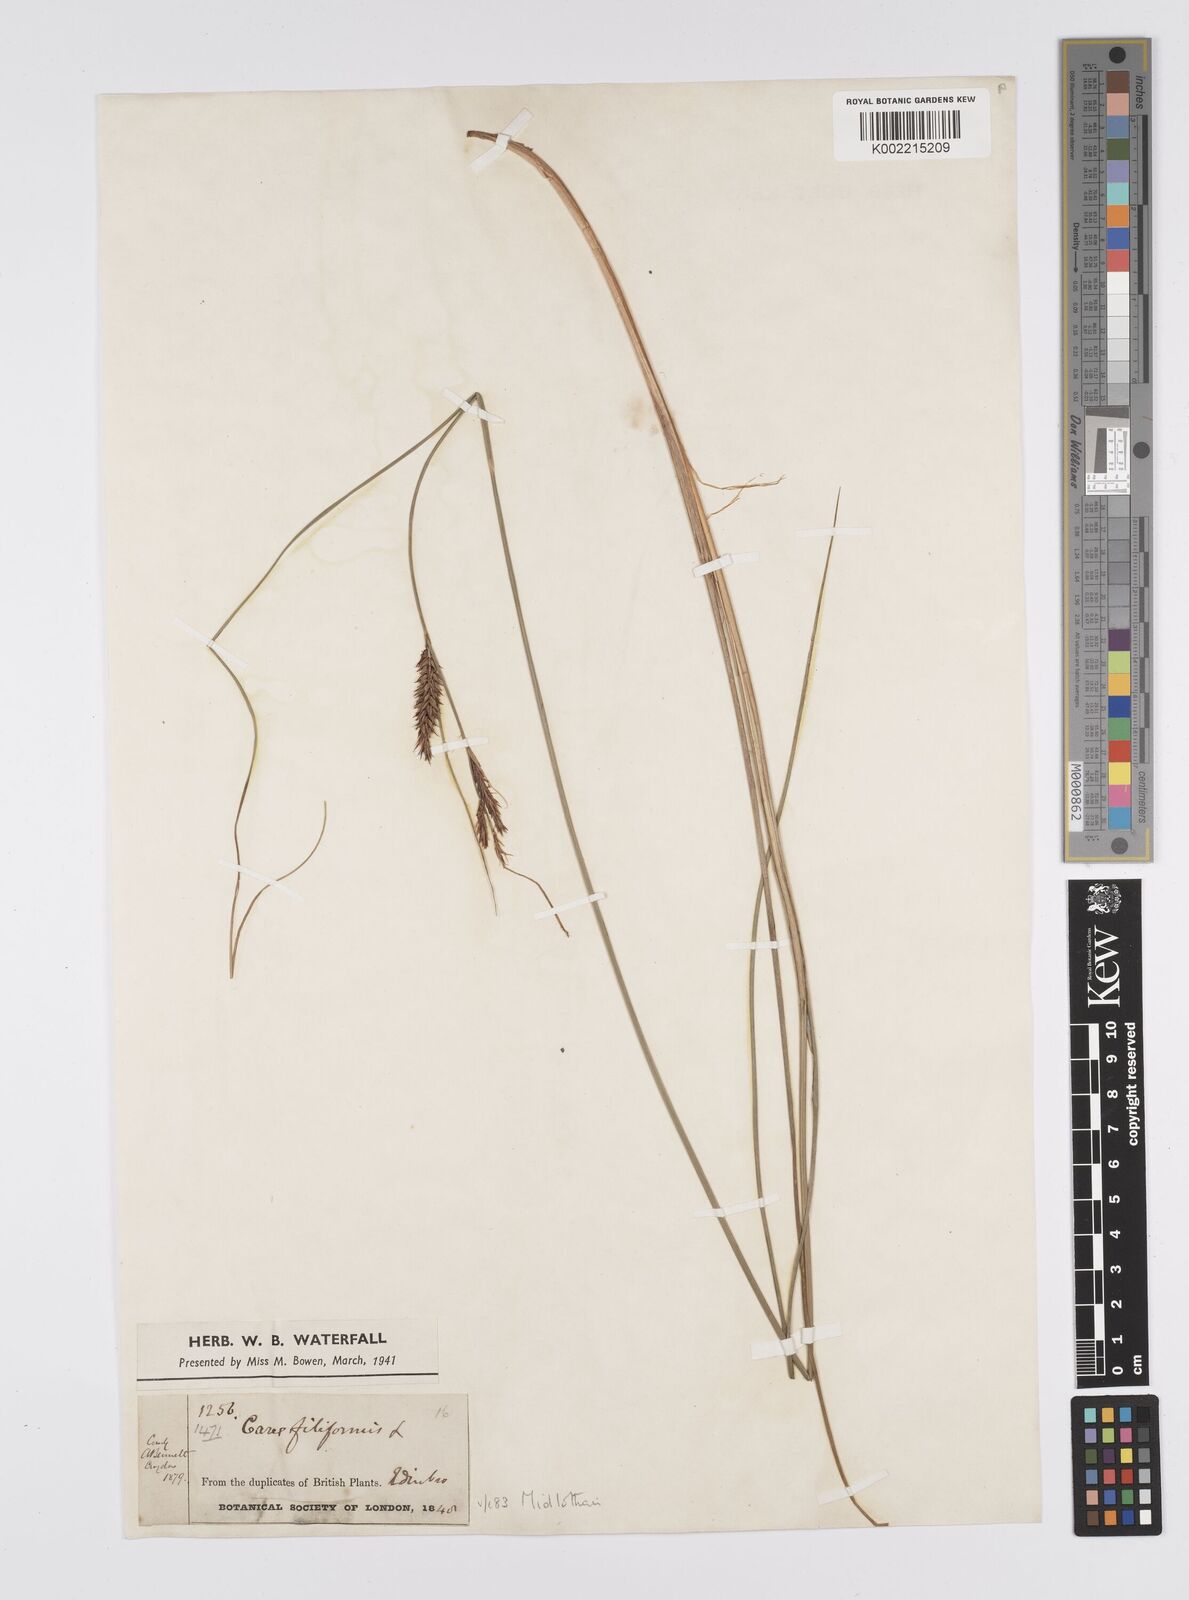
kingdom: Plantae
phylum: Tracheophyta
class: Liliopsida
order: Poales
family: Cyperaceae
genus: Carex
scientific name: Carex lasiocarpa
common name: Slender sedge
